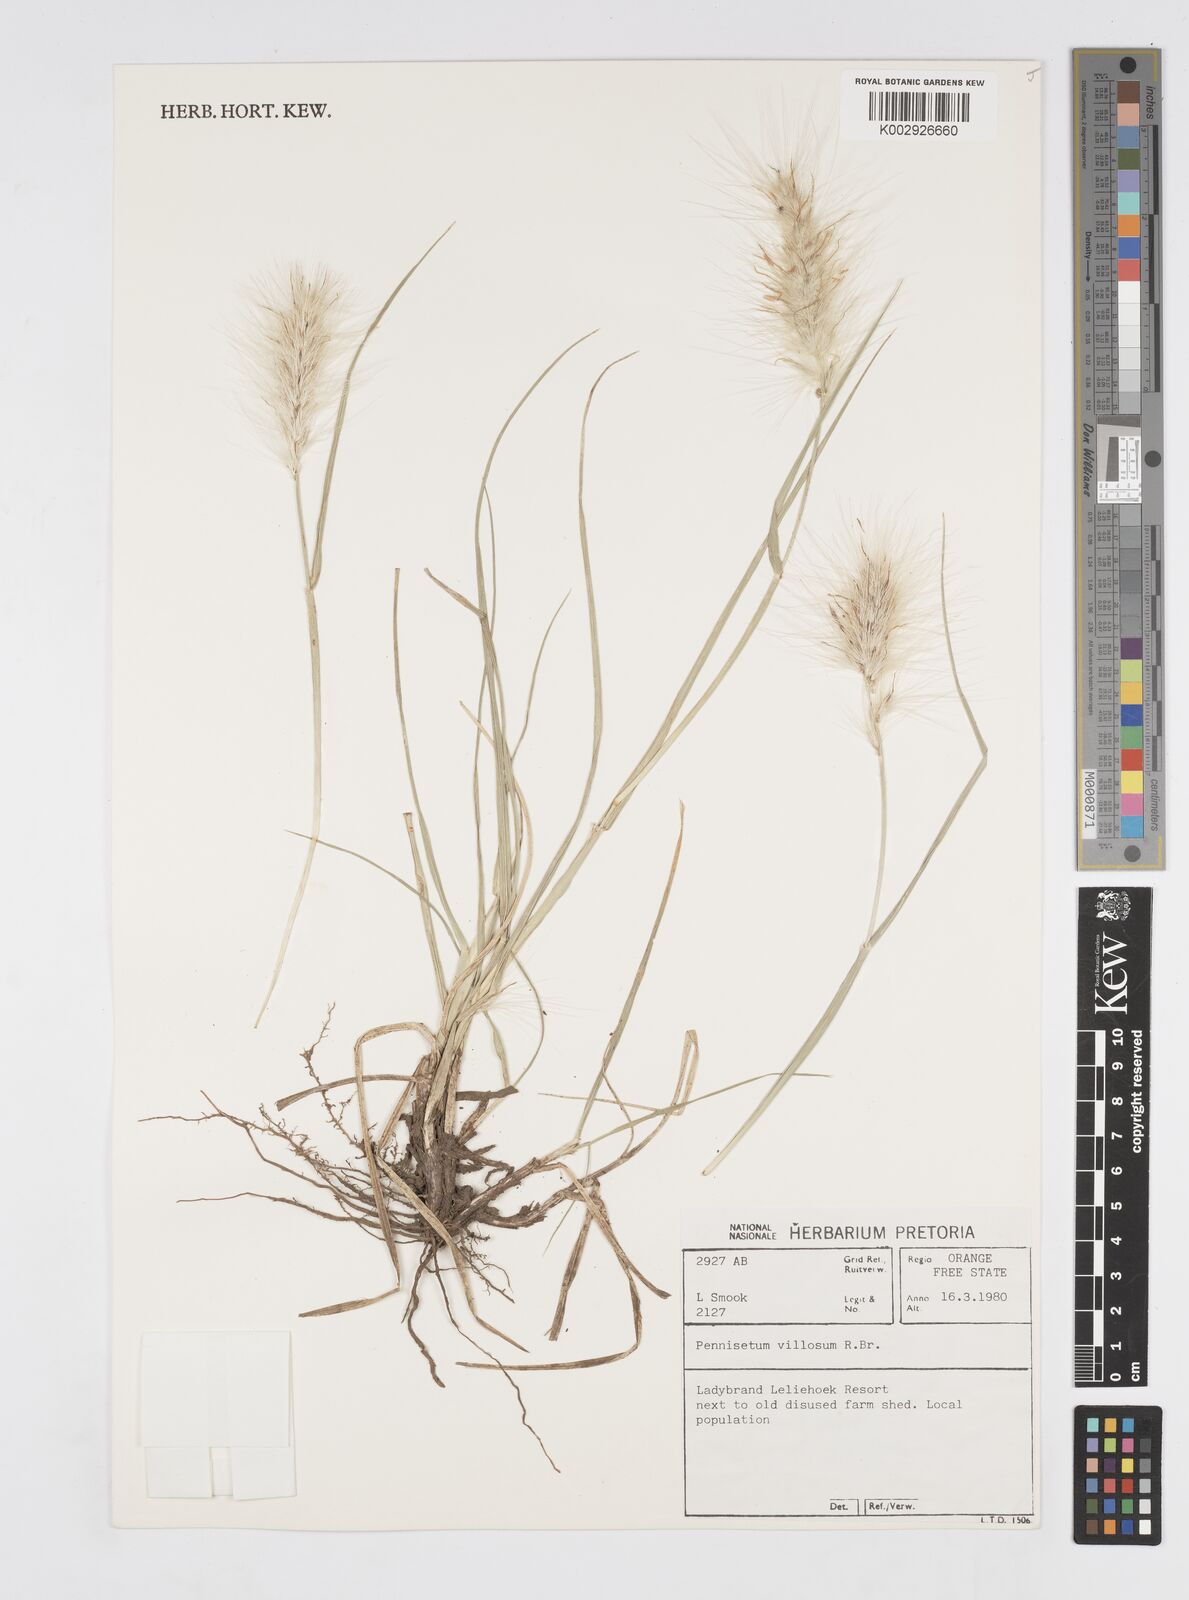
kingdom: Plantae
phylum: Tracheophyta
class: Liliopsida
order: Poales
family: Poaceae
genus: Cenchrus
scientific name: Cenchrus longisetus
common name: Feathertop
